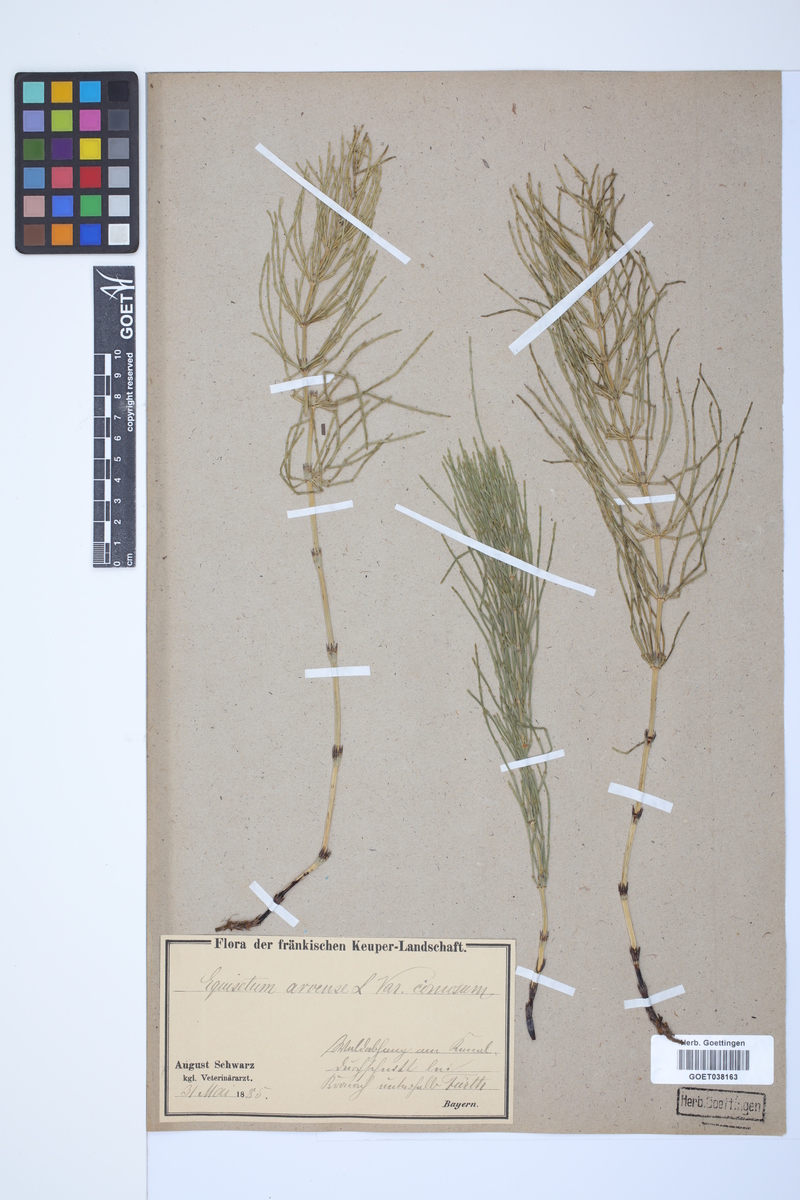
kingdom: Plantae
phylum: Tracheophyta
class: Polypodiopsida
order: Equisetales
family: Equisetaceae
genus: Equisetum
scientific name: Equisetum arvense
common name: Field horsetail
